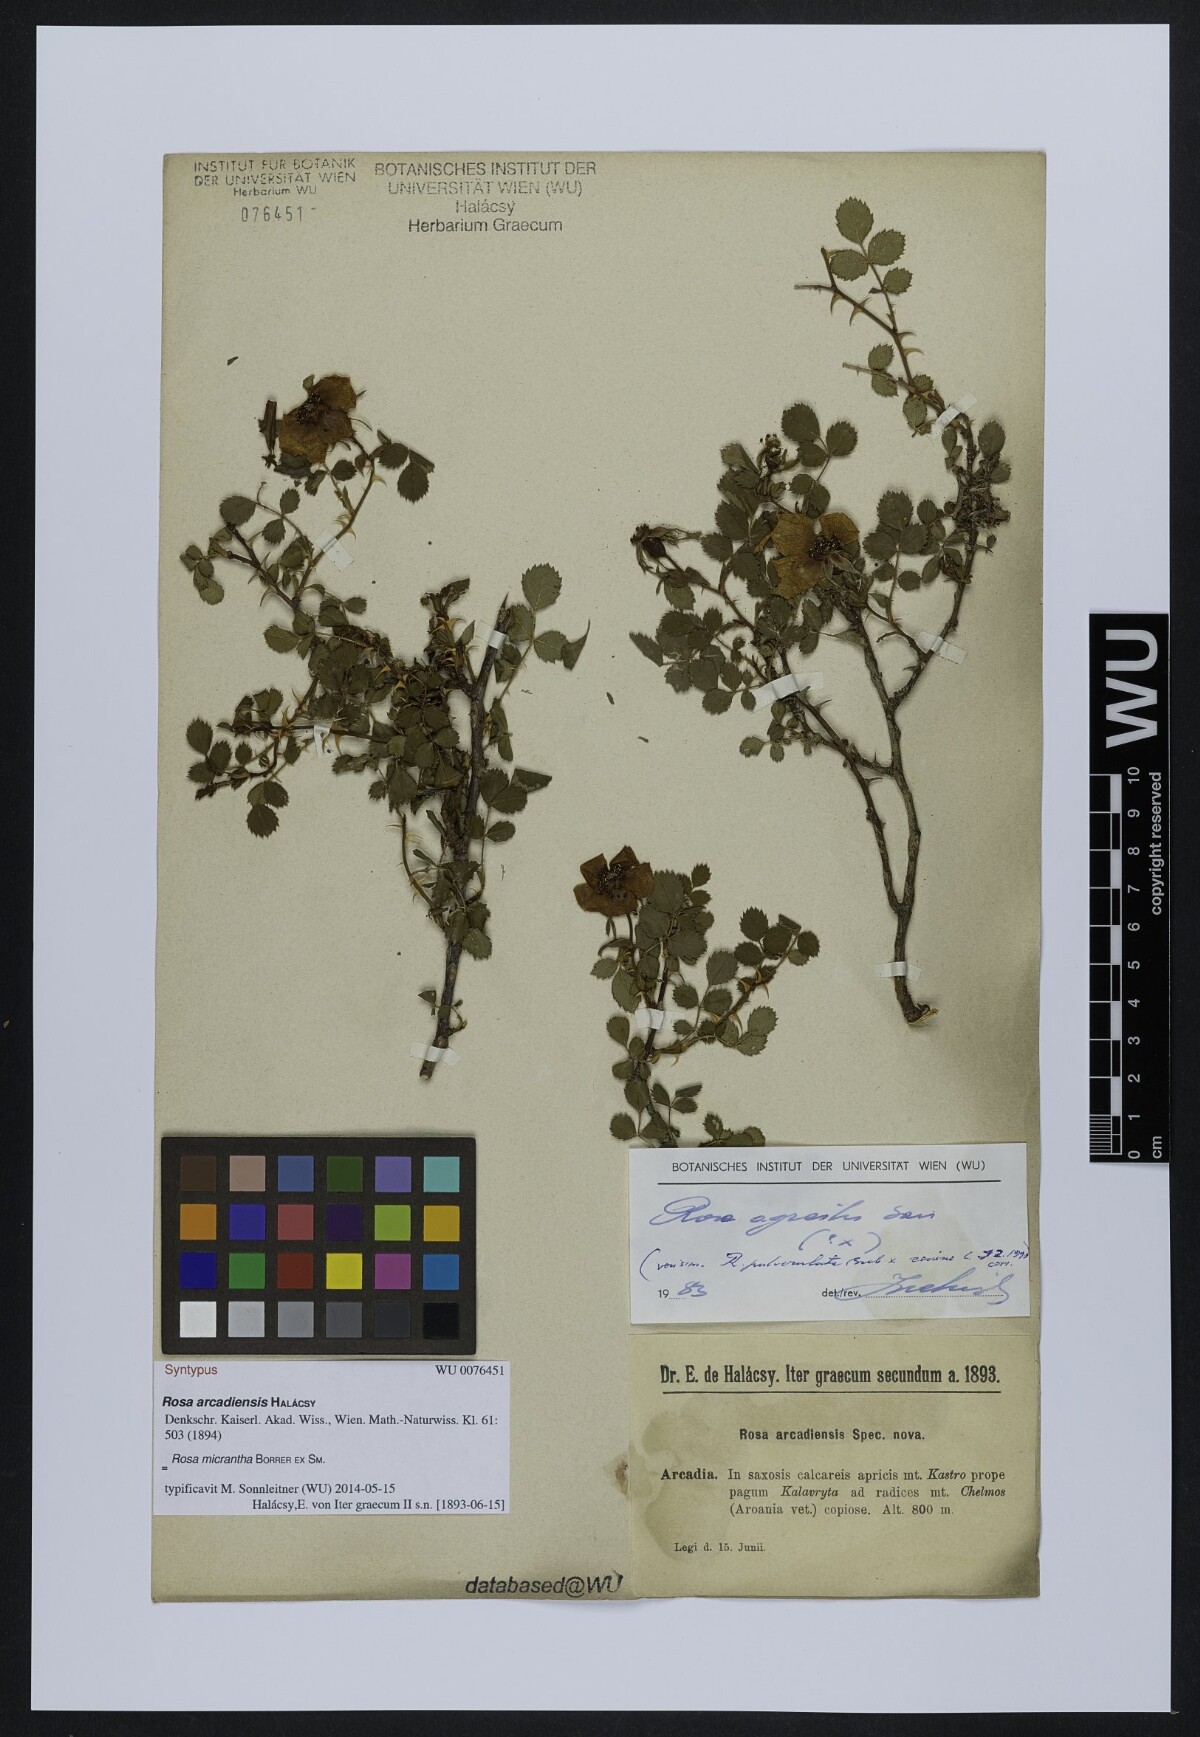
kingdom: Plantae
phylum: Tracheophyta
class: Magnoliopsida
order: Rosales
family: Rosaceae
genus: Rosa
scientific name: Rosa
